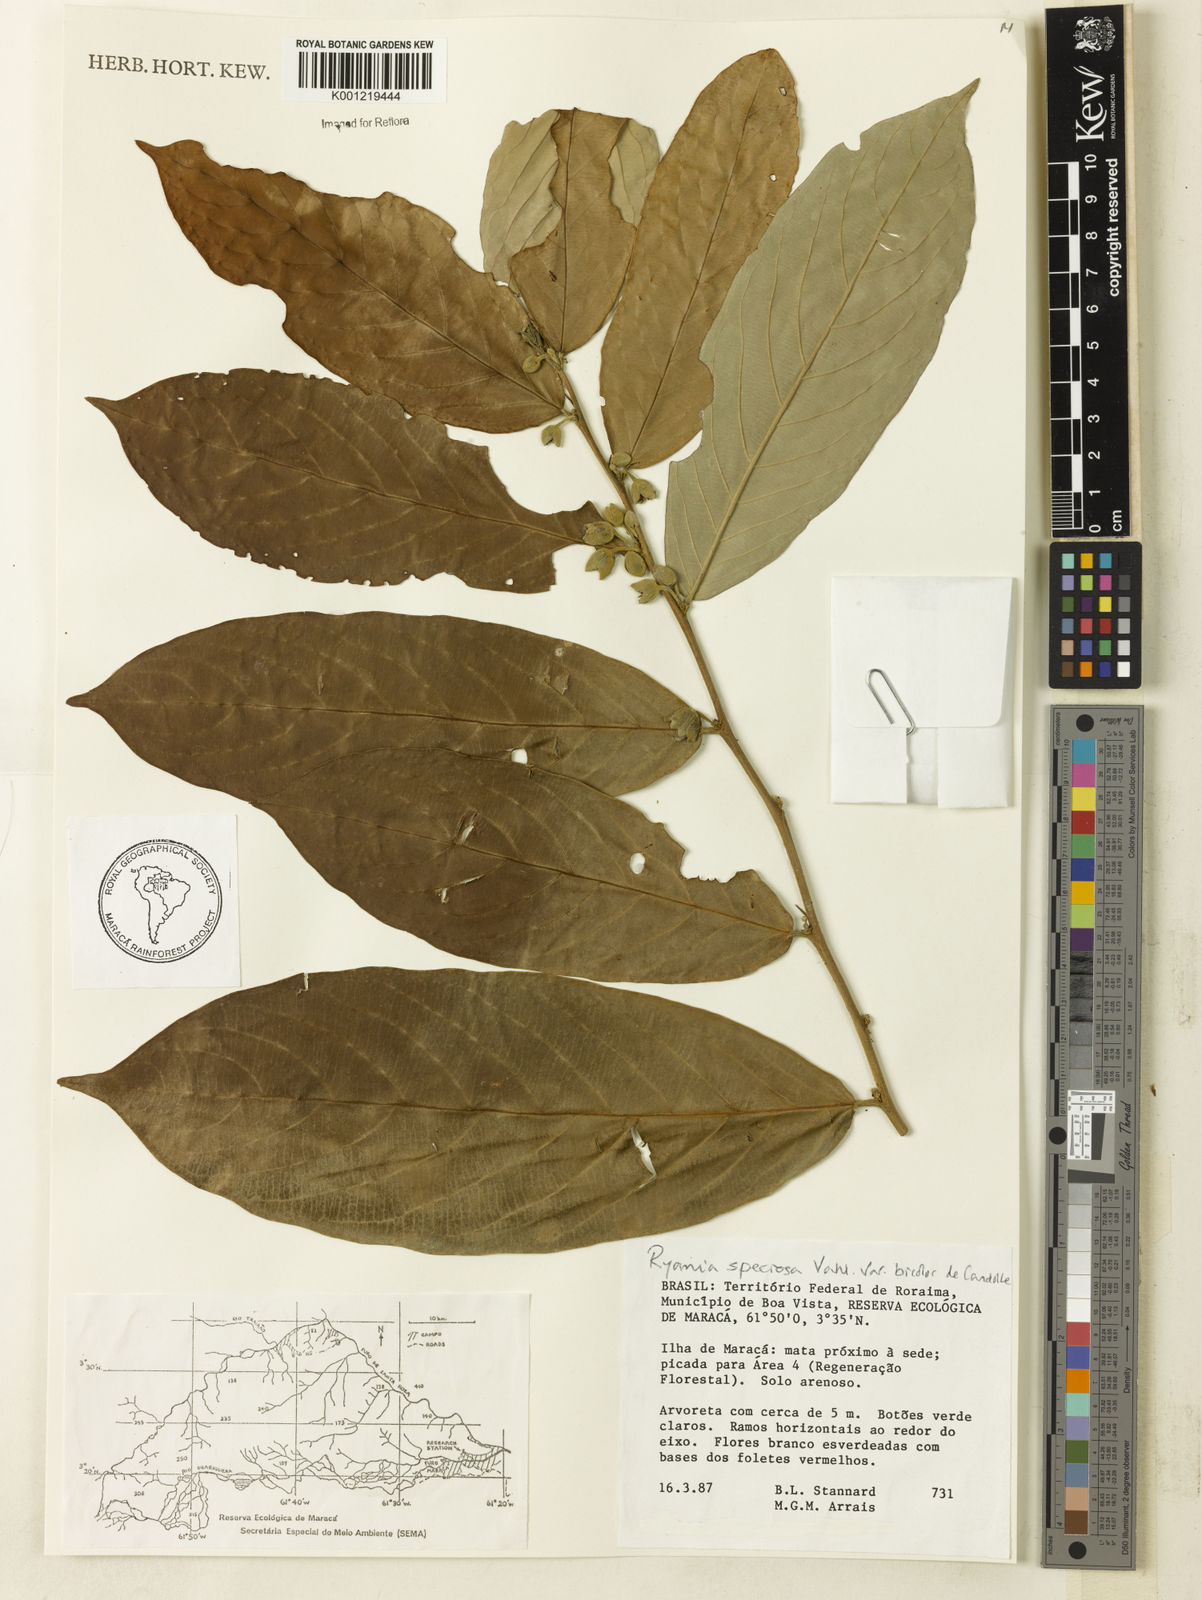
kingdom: Plantae
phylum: Tracheophyta
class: Magnoliopsida
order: Malpighiales
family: Salicaceae
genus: Ryania
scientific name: Ryania speciosa
